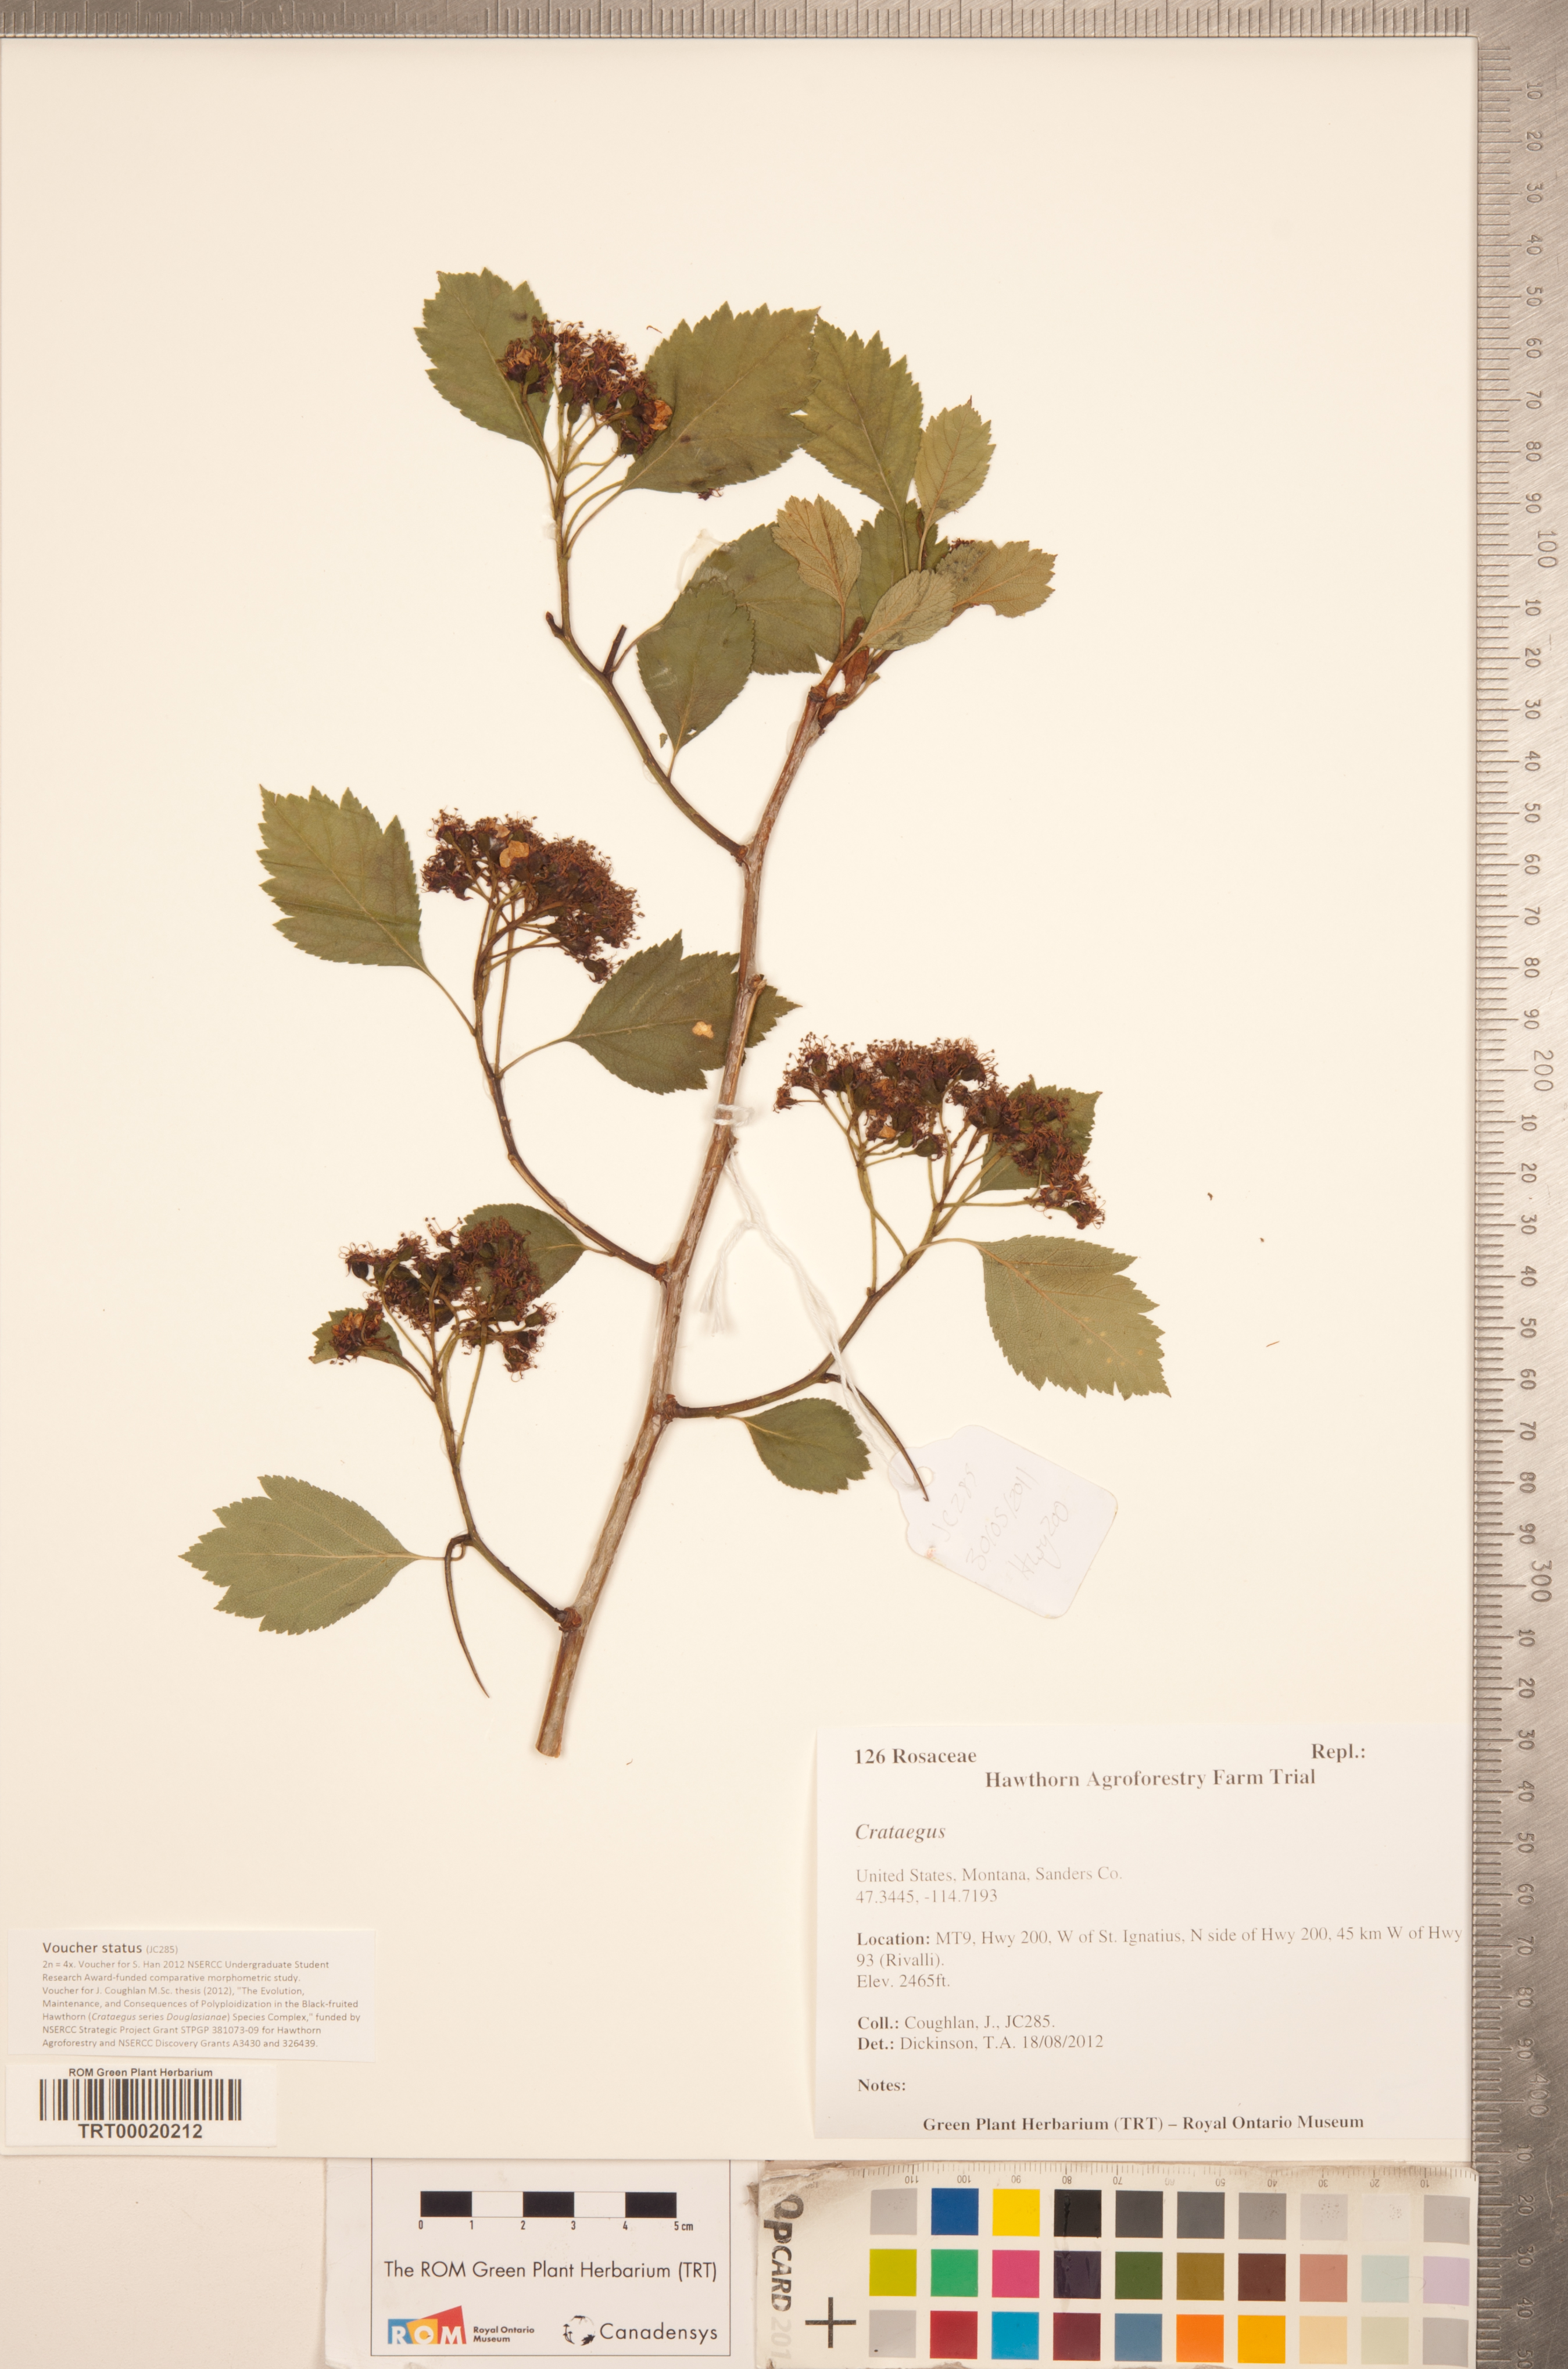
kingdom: Plantae
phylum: Tracheophyta
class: Magnoliopsida
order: Rosales
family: Rosaceae
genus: Crataegus
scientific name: Crataegus
